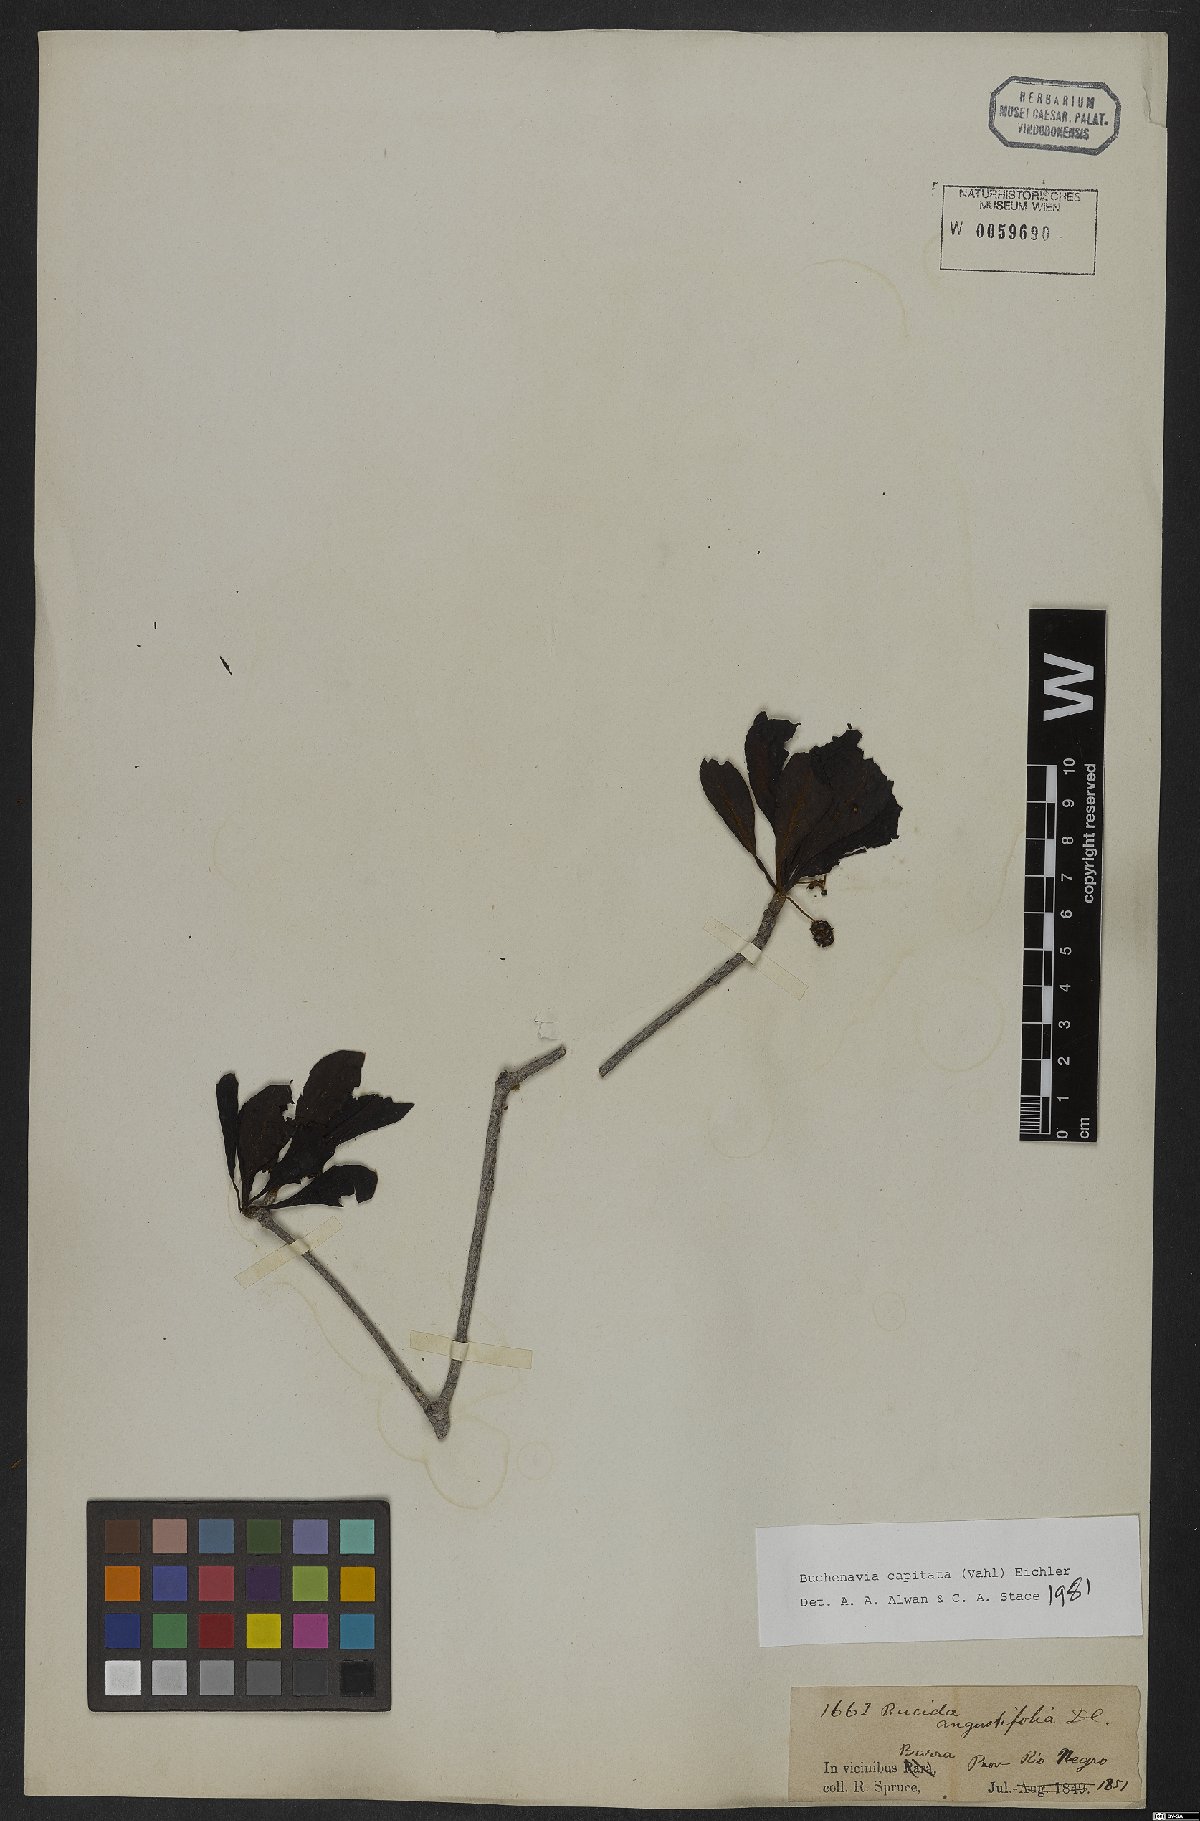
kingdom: Plantae
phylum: Tracheophyta
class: Magnoliopsida
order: Myrtales
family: Combretaceae
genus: Terminalia
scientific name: Terminalia tetraphylla
